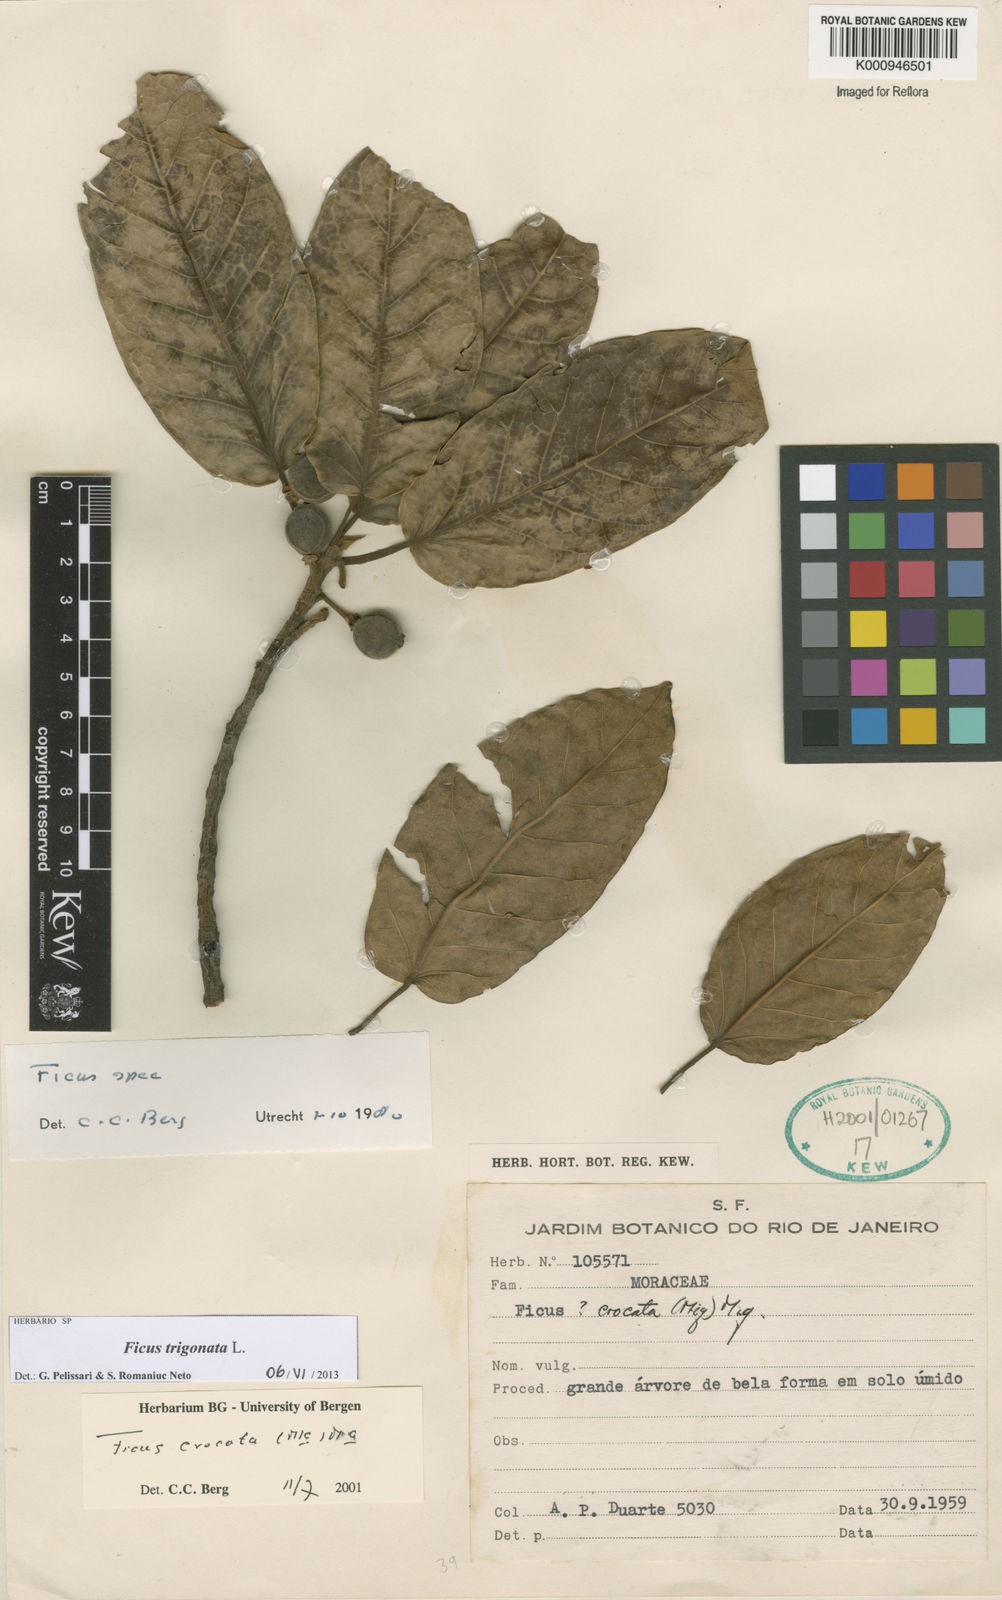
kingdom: Plantae
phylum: Tracheophyta
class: Magnoliopsida
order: Rosales
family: Moraceae
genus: Ficus
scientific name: Ficus trigonata
